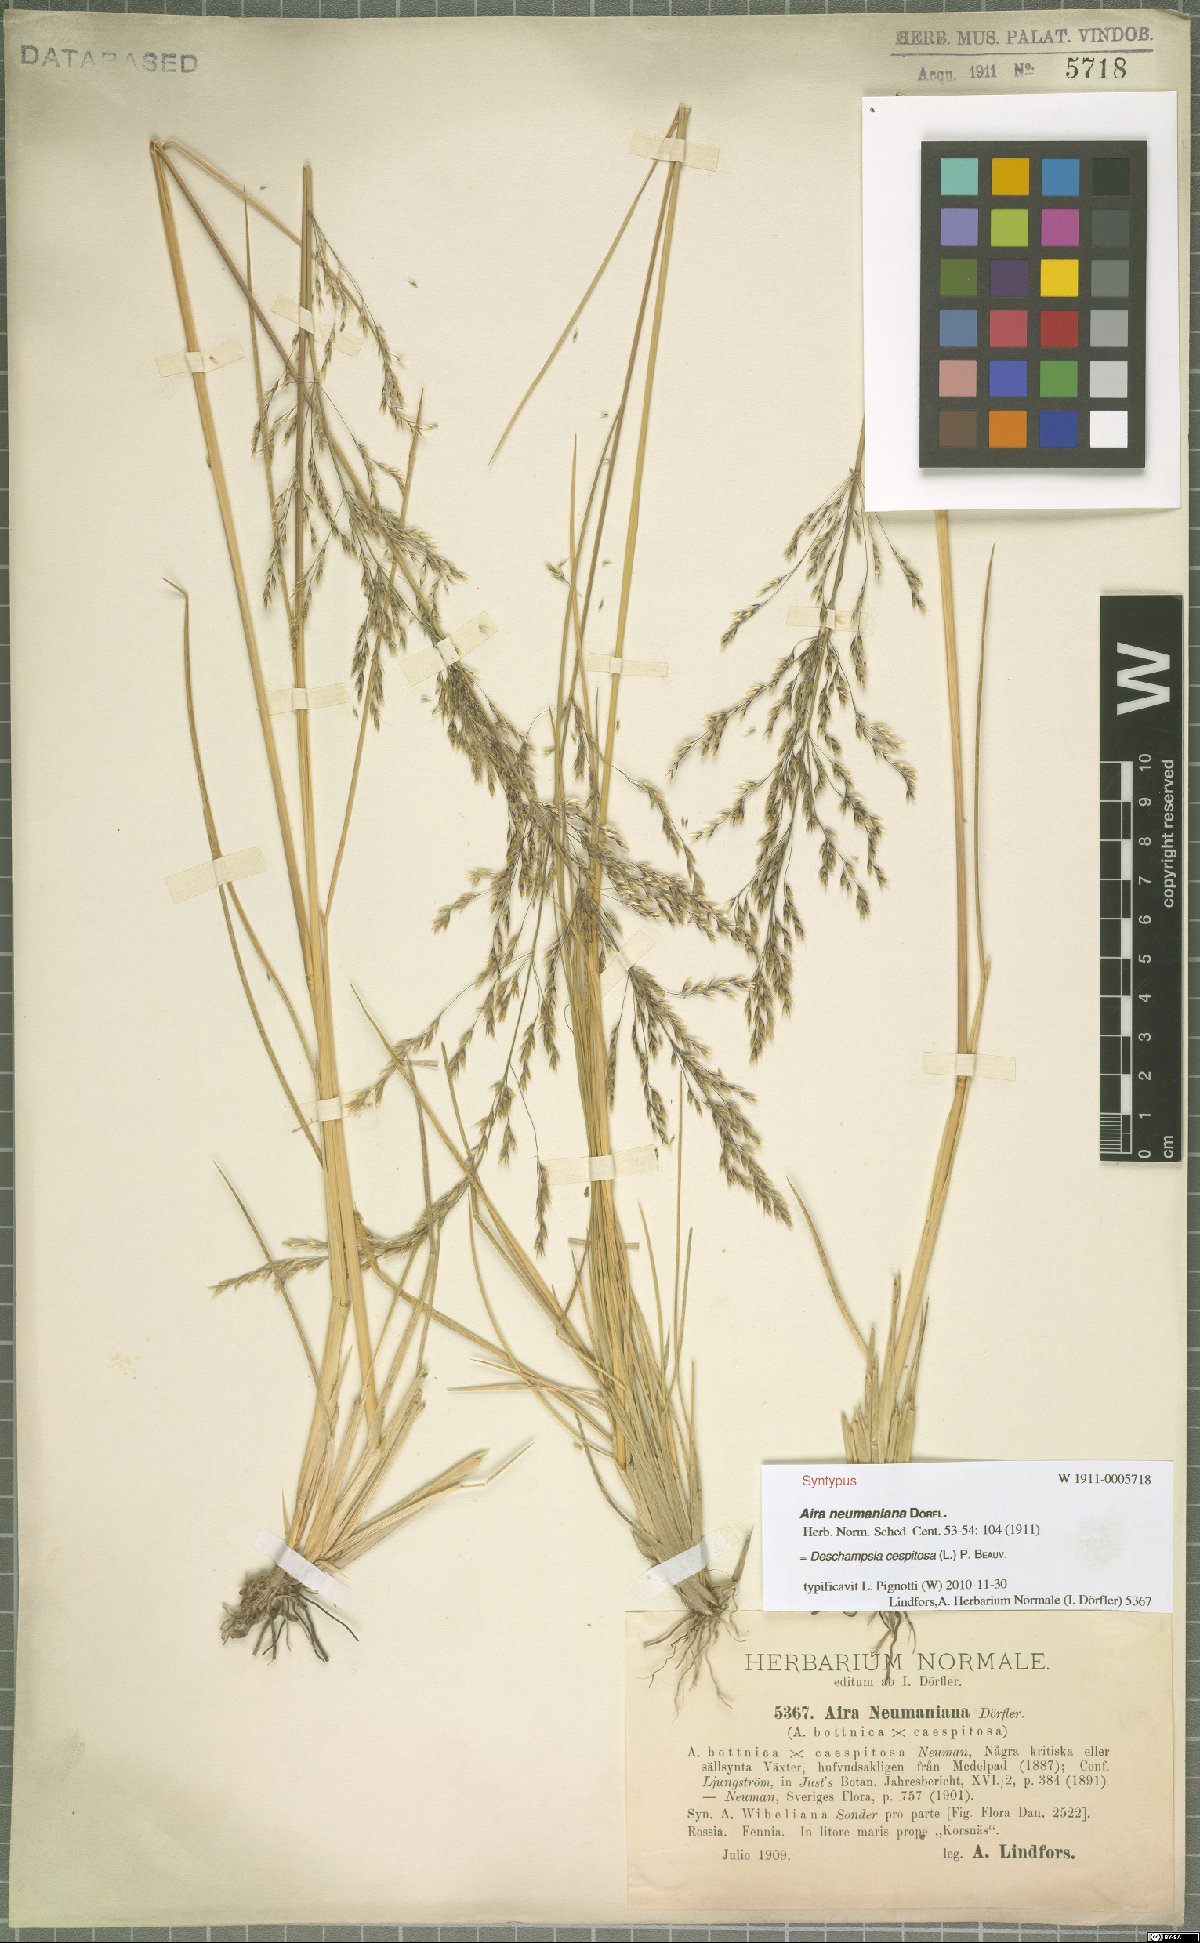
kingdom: Plantae
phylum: Tracheophyta
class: Liliopsida
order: Poales
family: Poaceae
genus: Deschampsia
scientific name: Deschampsia cespitosa
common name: Tufted hair-grass
